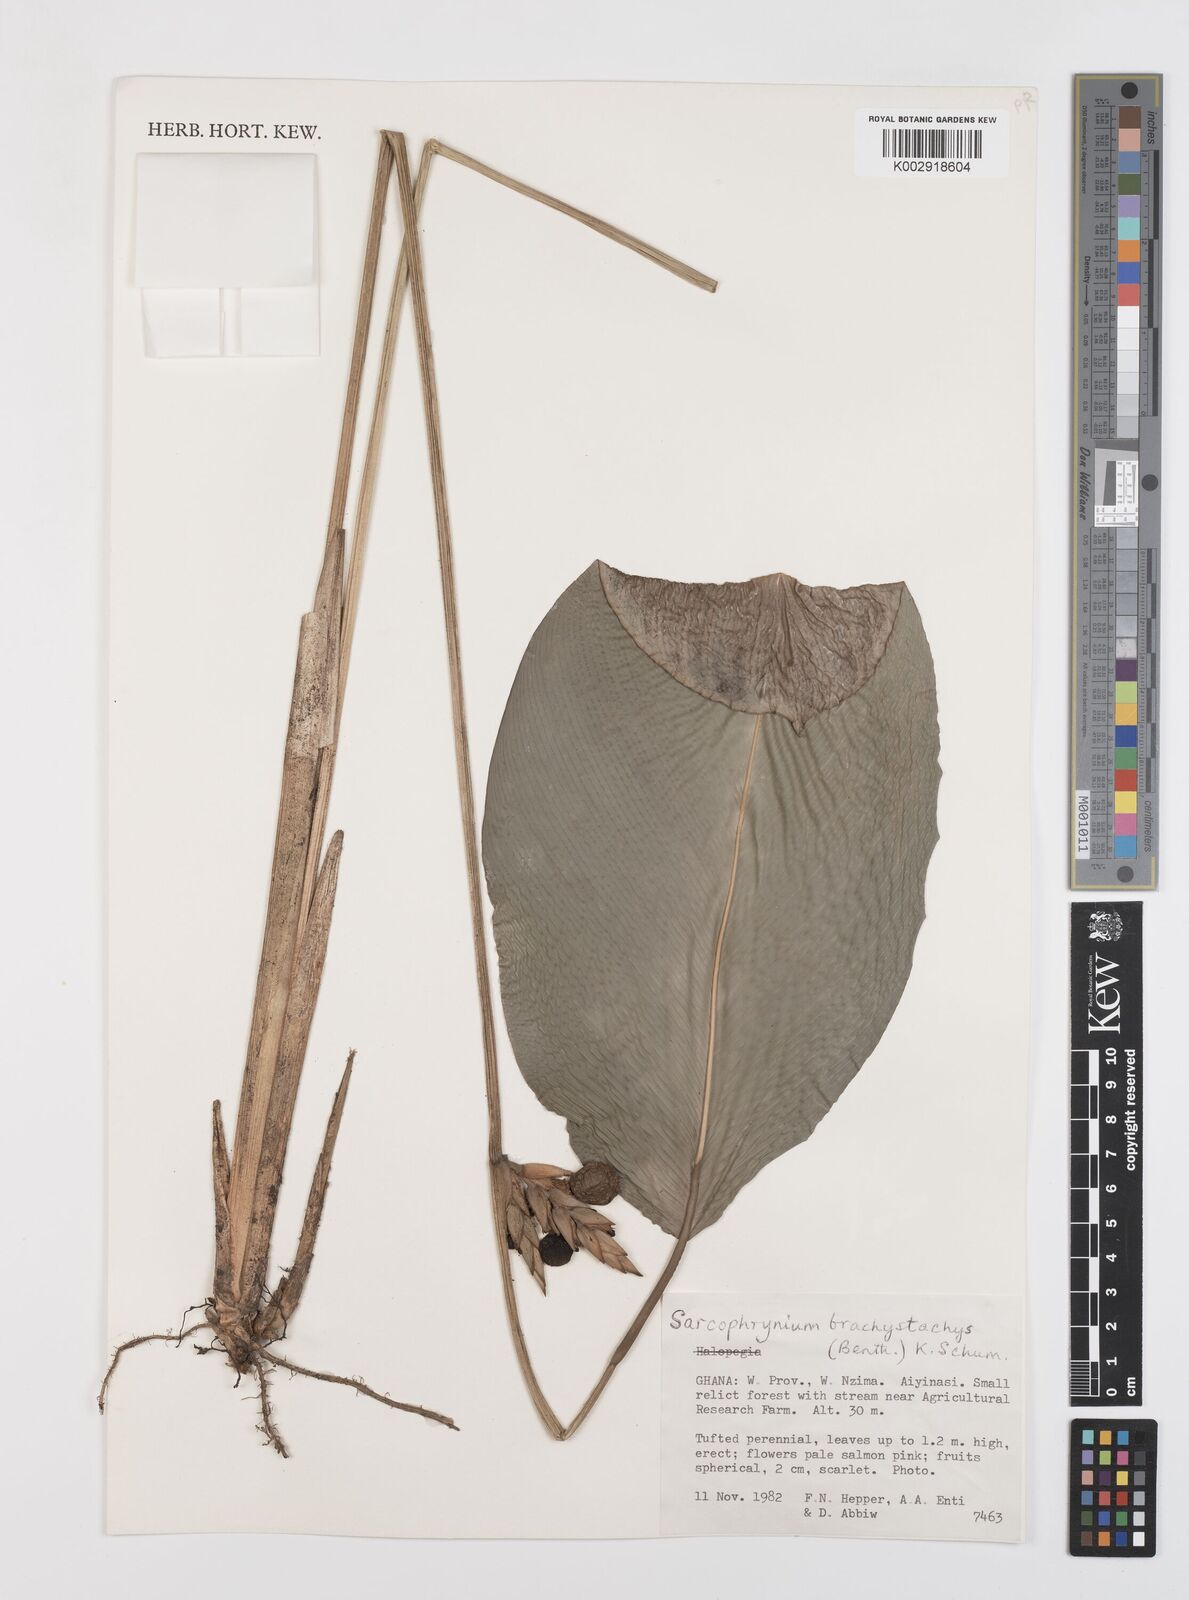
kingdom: Plantae
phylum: Tracheophyta
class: Liliopsida
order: Zingiberales
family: Marantaceae
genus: Sarcophrynium
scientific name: Sarcophrynium brachystachyum
